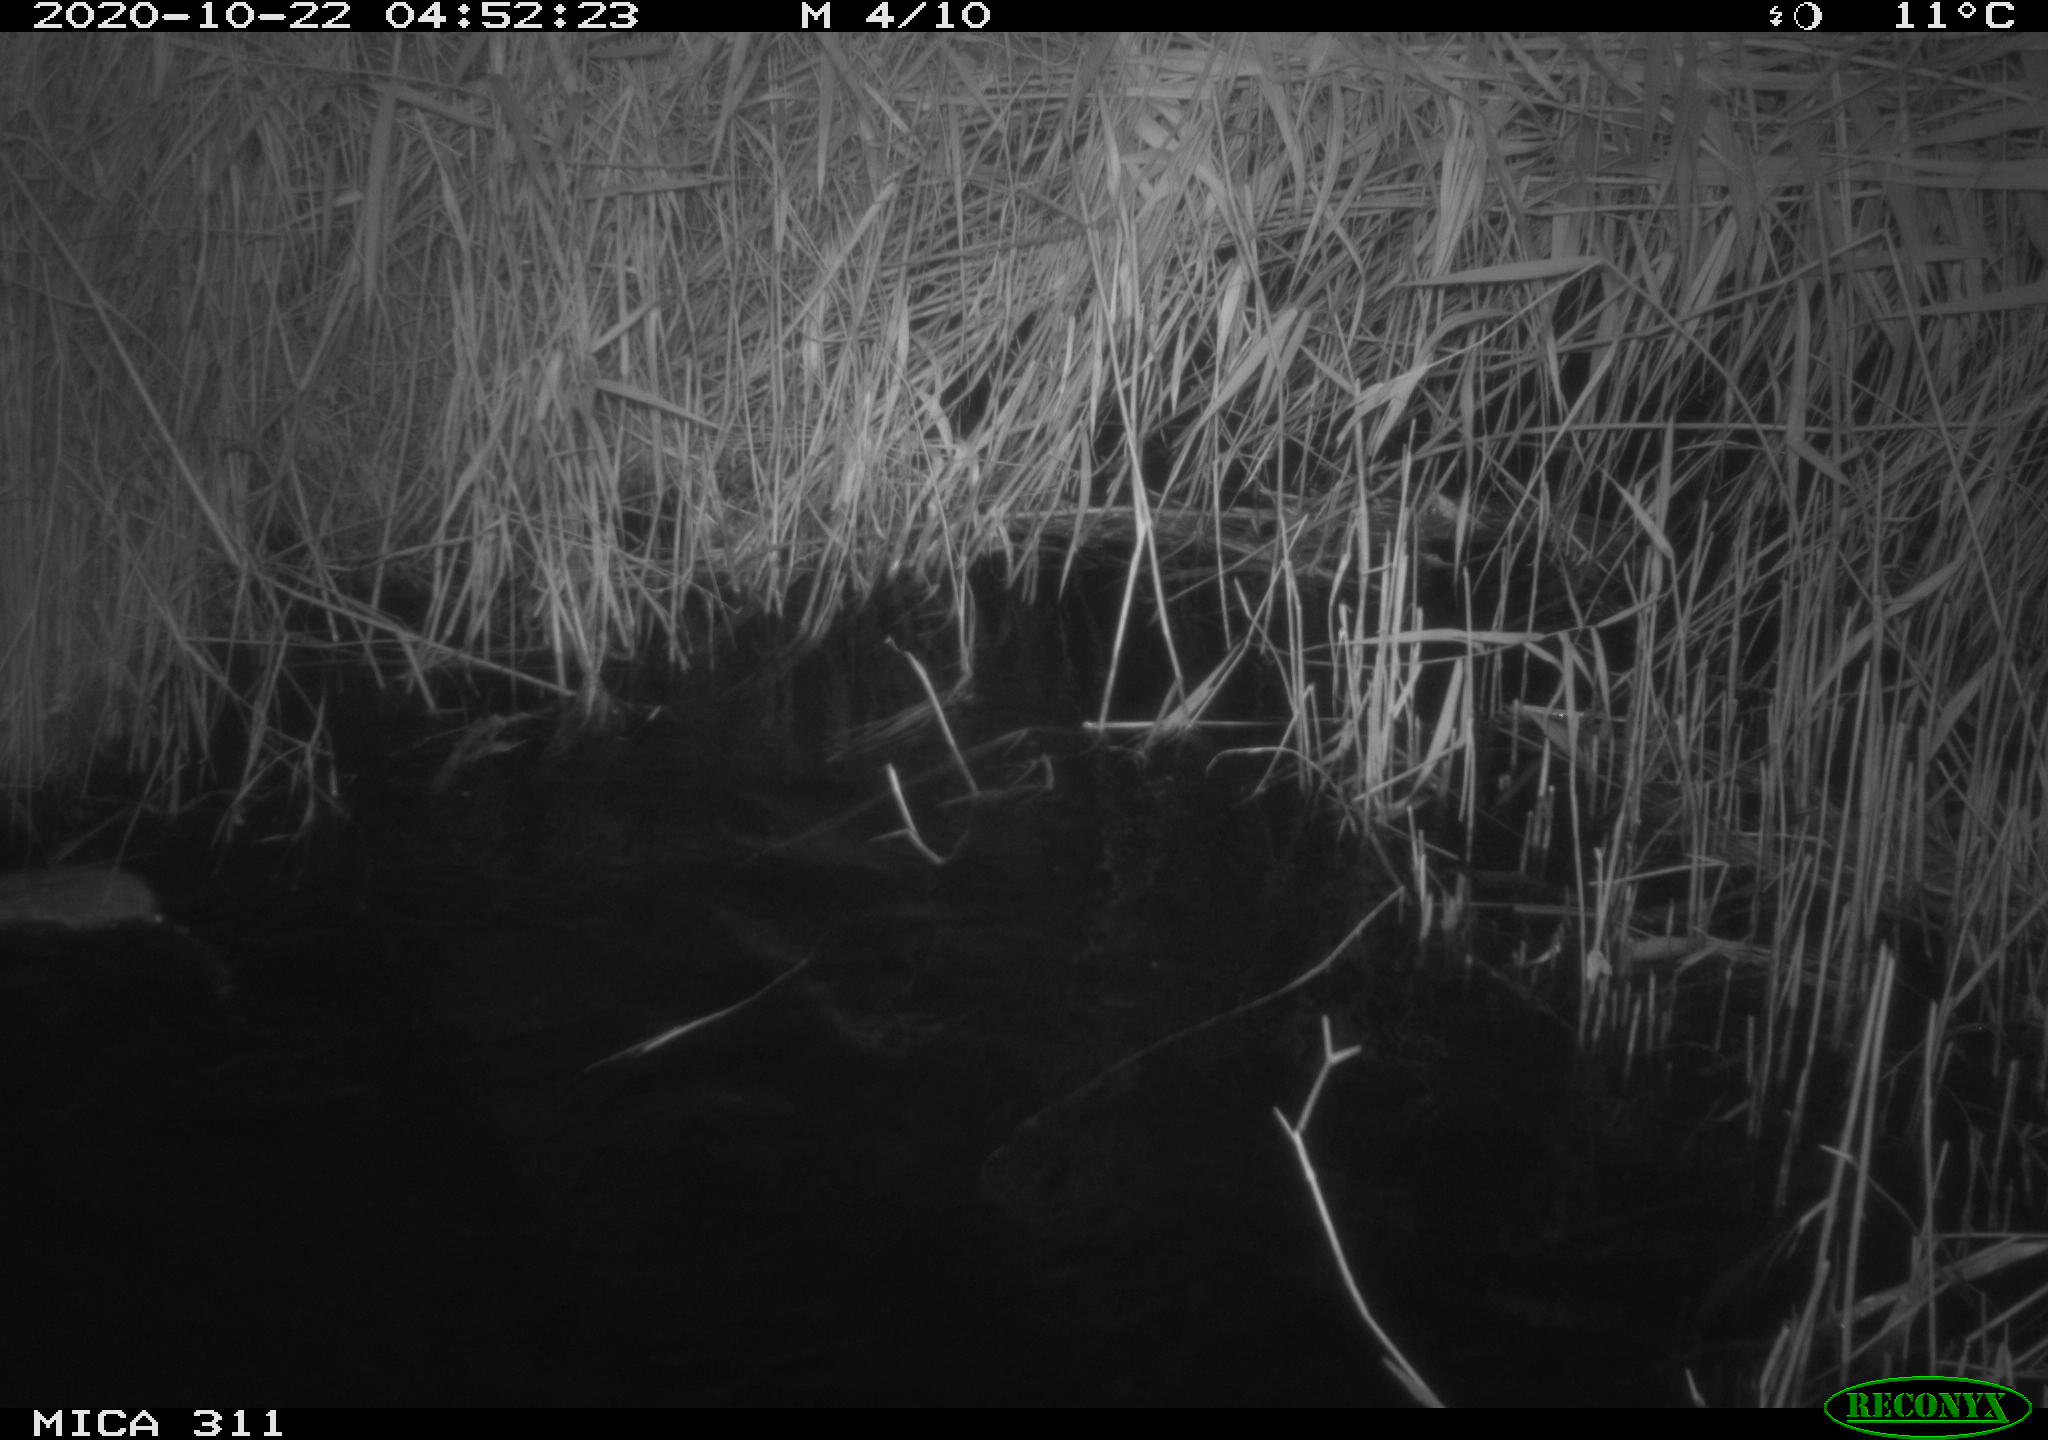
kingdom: Animalia
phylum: Chordata
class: Mammalia
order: Rodentia
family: Muridae
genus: Rattus
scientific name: Rattus norvegicus
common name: Brown rat
